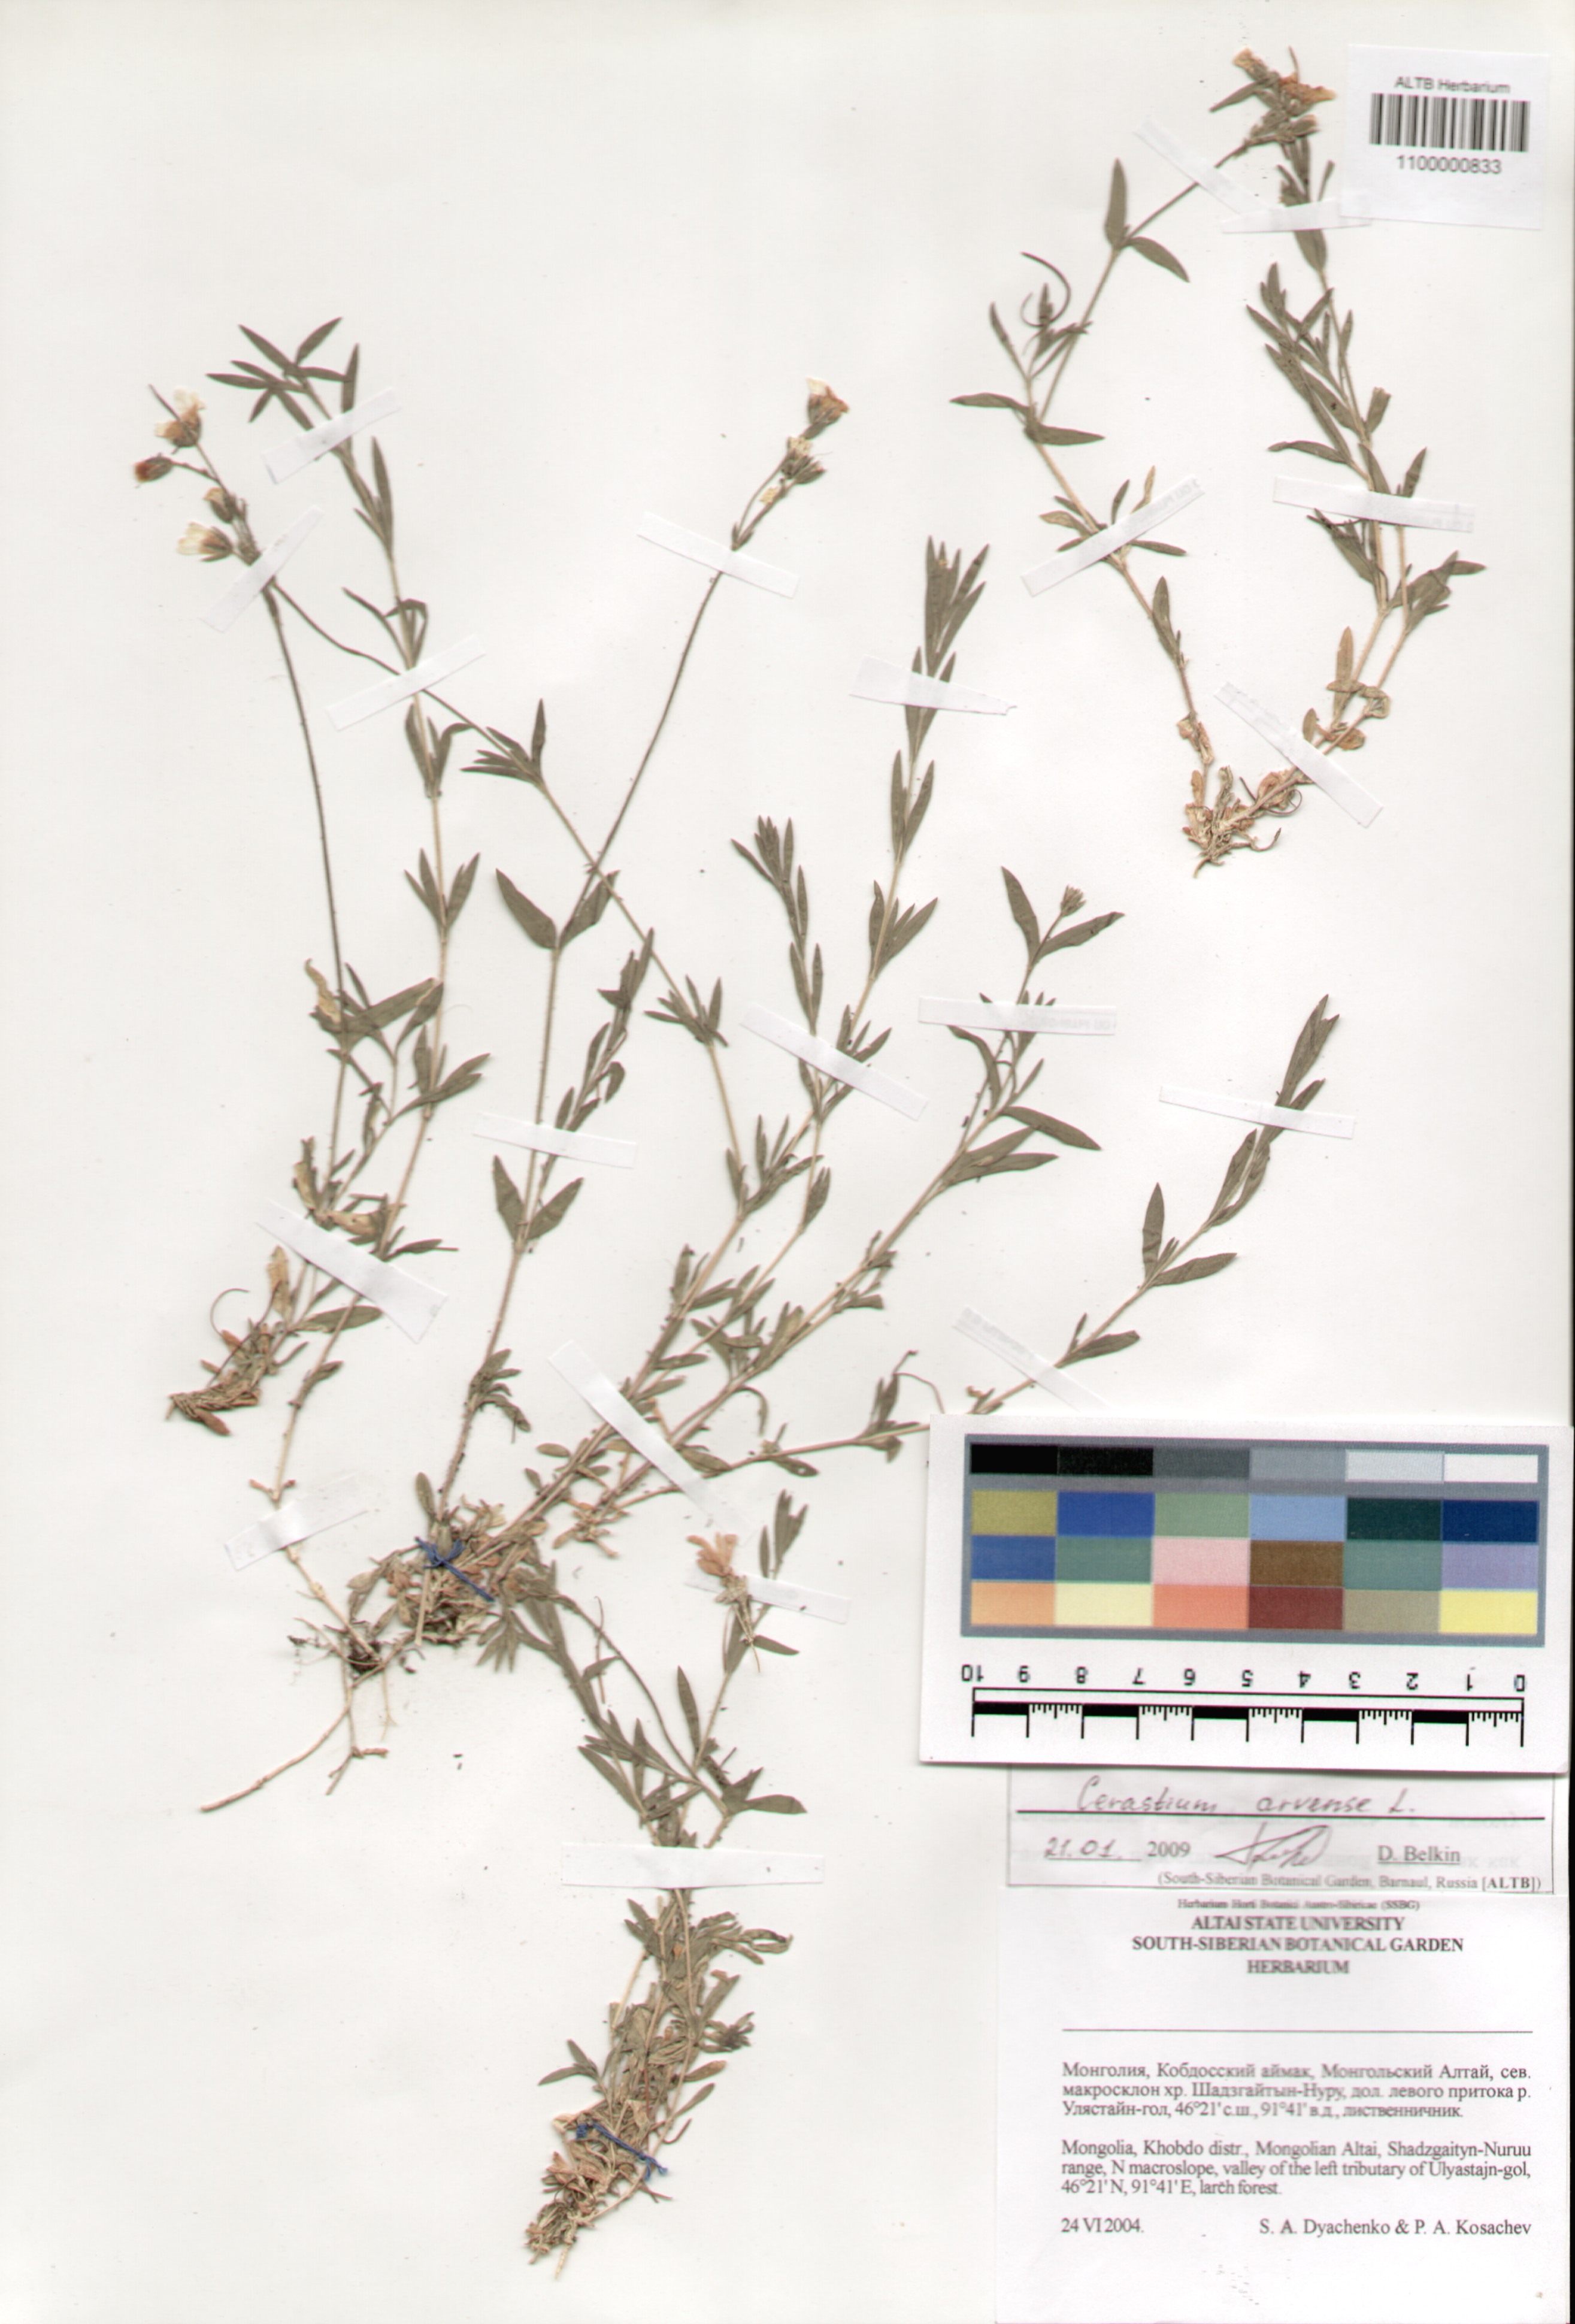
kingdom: Plantae
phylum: Tracheophyta
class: Magnoliopsida
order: Caryophyllales
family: Caryophyllaceae
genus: Cerastium
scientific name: Cerastium arvense
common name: Field mouse-ear
